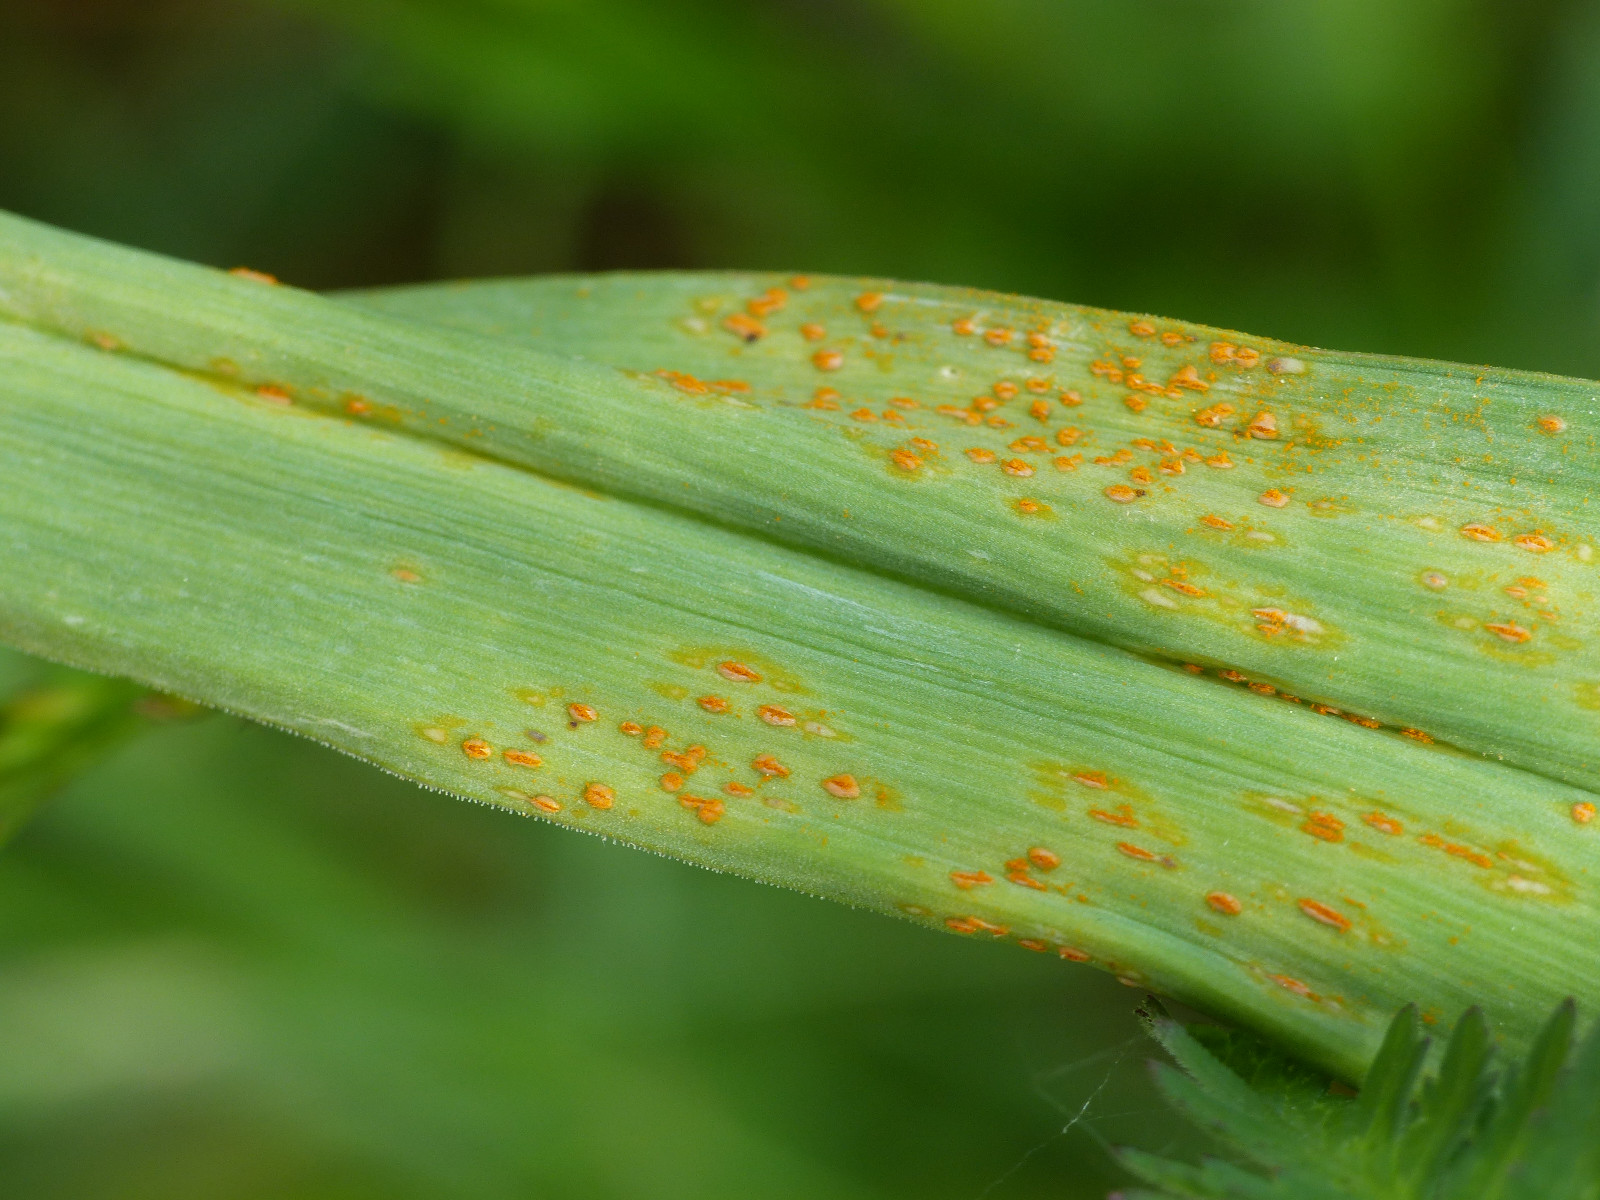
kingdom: Fungi
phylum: Basidiomycota
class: Pucciniomycetes
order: Pucciniales
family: Pucciniaceae
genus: Puccinia
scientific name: Puccinia porri
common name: Allium rust
